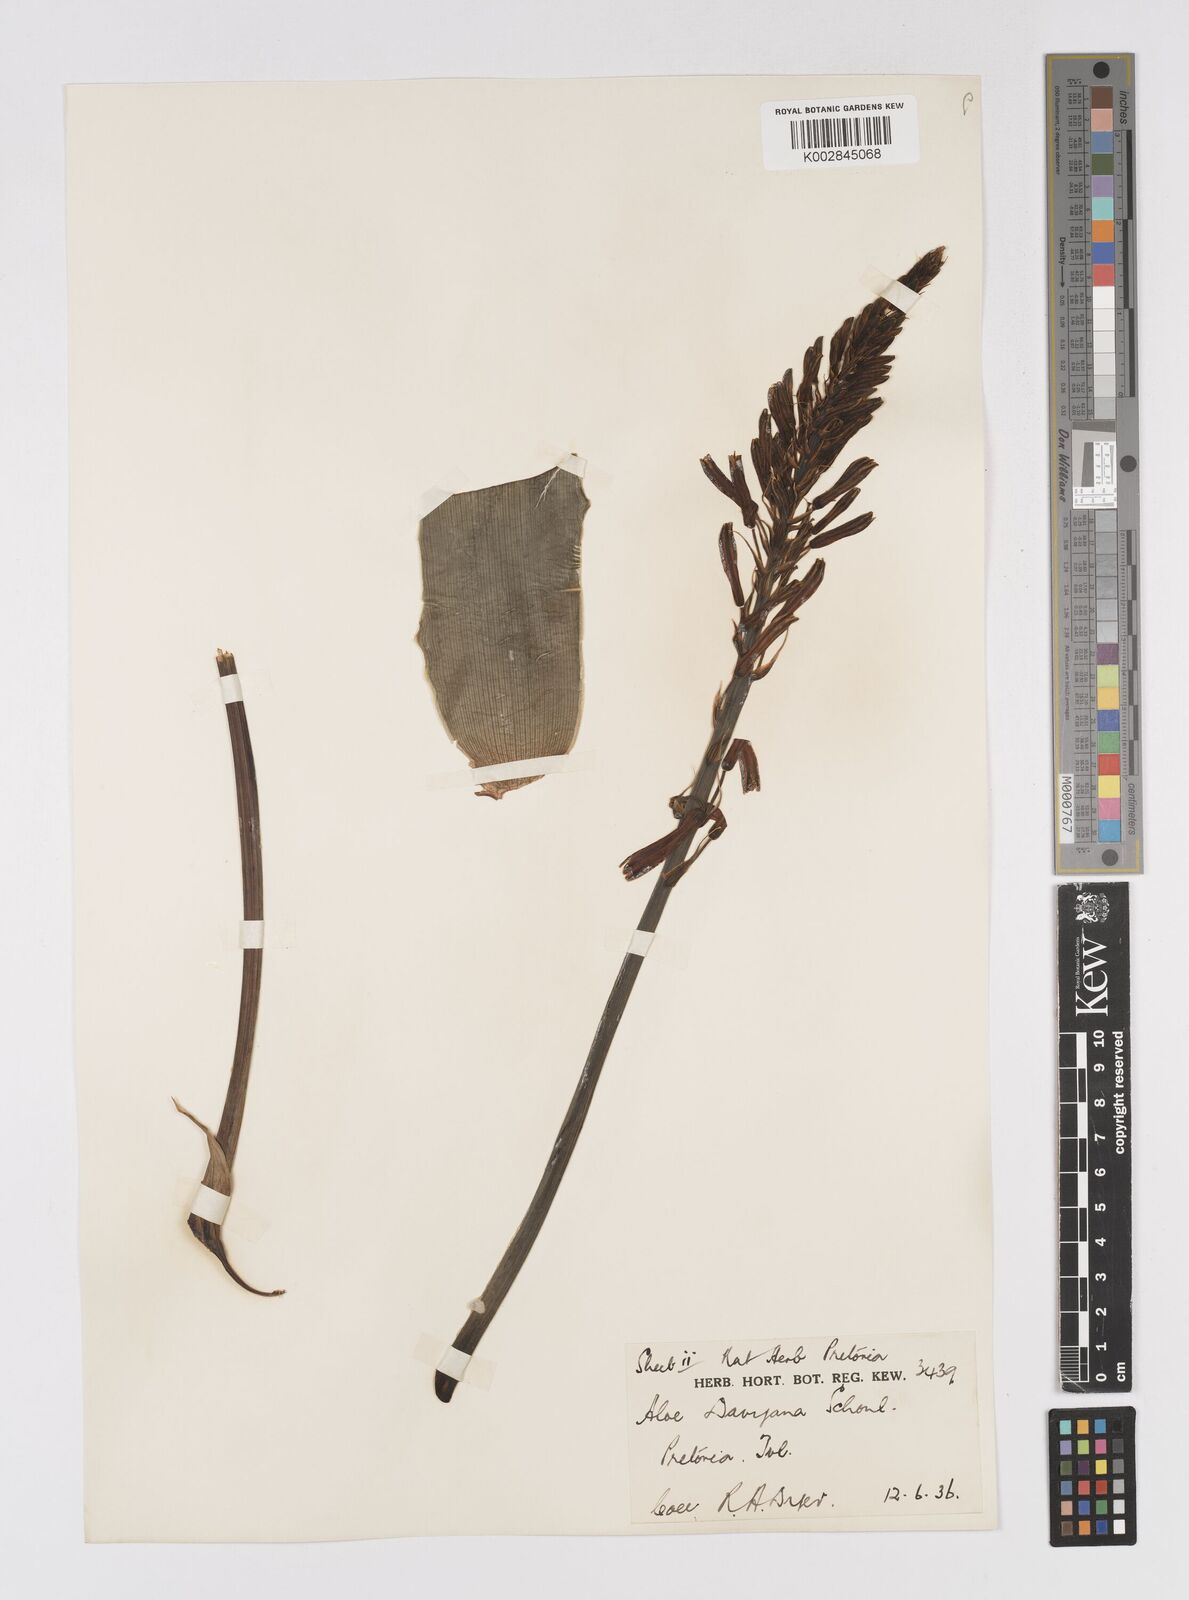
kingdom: Plantae
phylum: Tracheophyta
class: Liliopsida
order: Asparagales
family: Asphodelaceae
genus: Aloe
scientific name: Aloe davyana
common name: Spotted aloe
